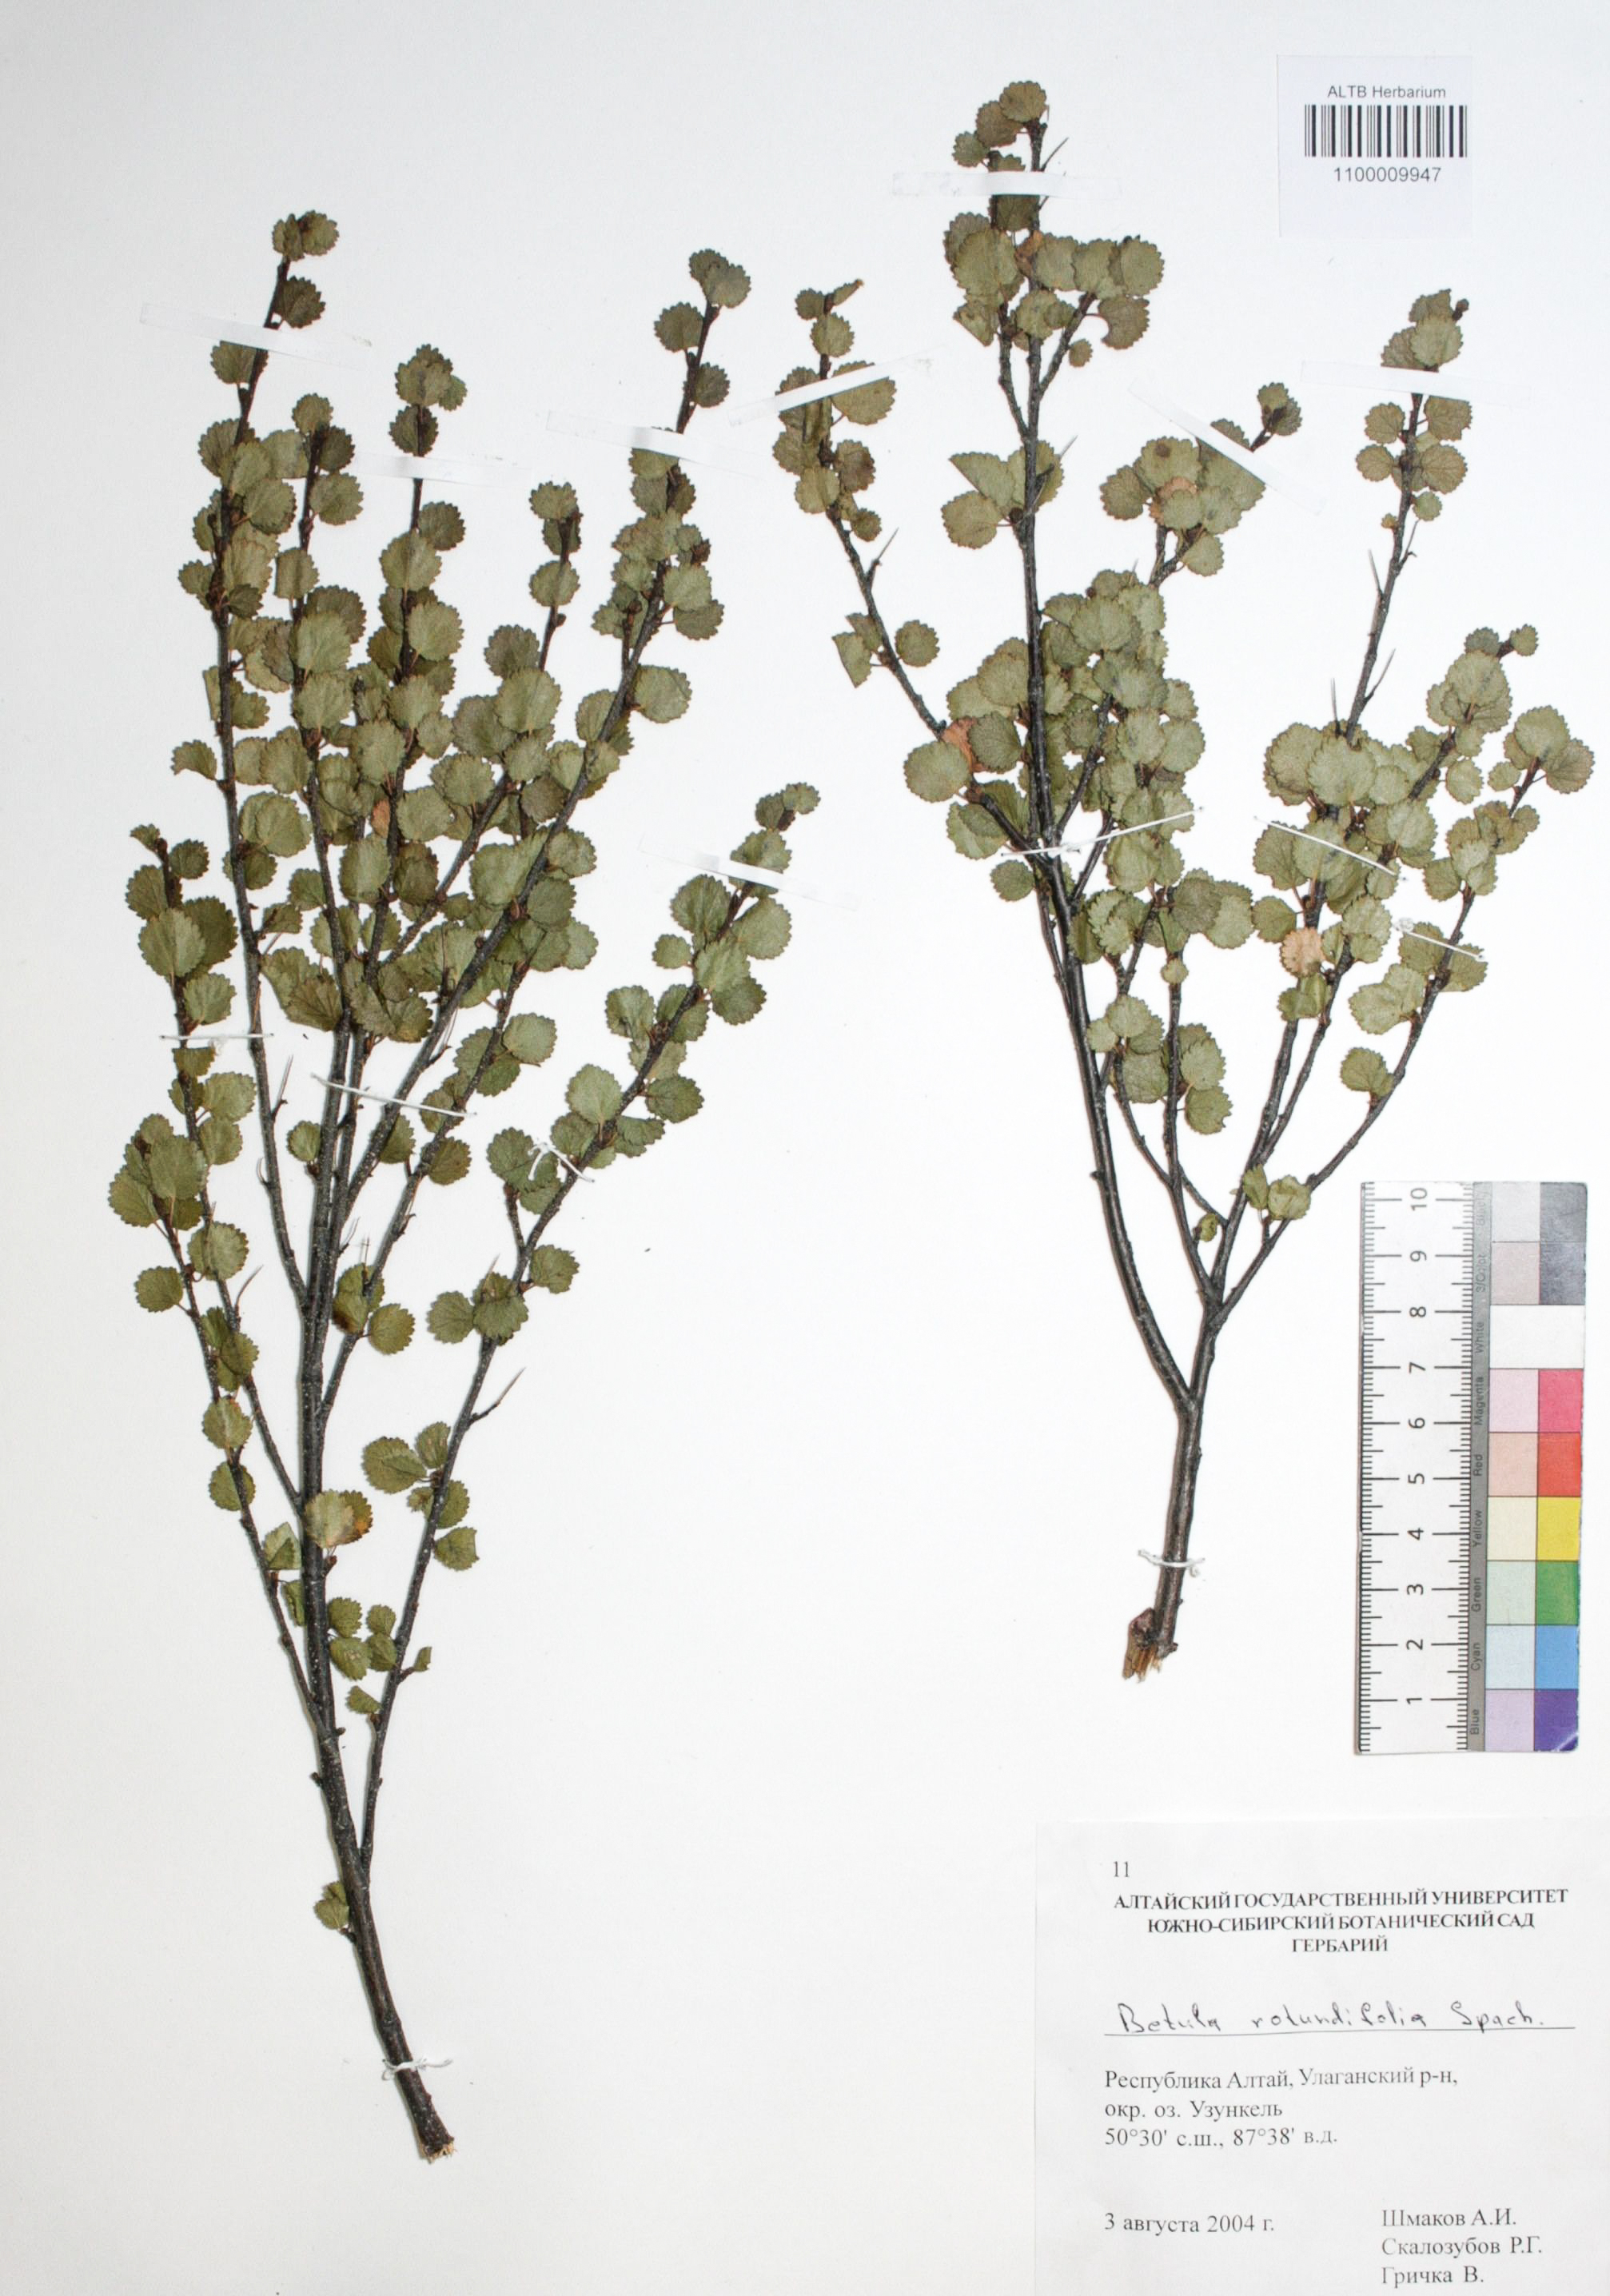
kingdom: Plantae
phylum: Tracheophyta
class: Magnoliopsida
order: Fagales
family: Betulaceae
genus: Betula
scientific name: Betula glandulosa
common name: Dwarf birch
